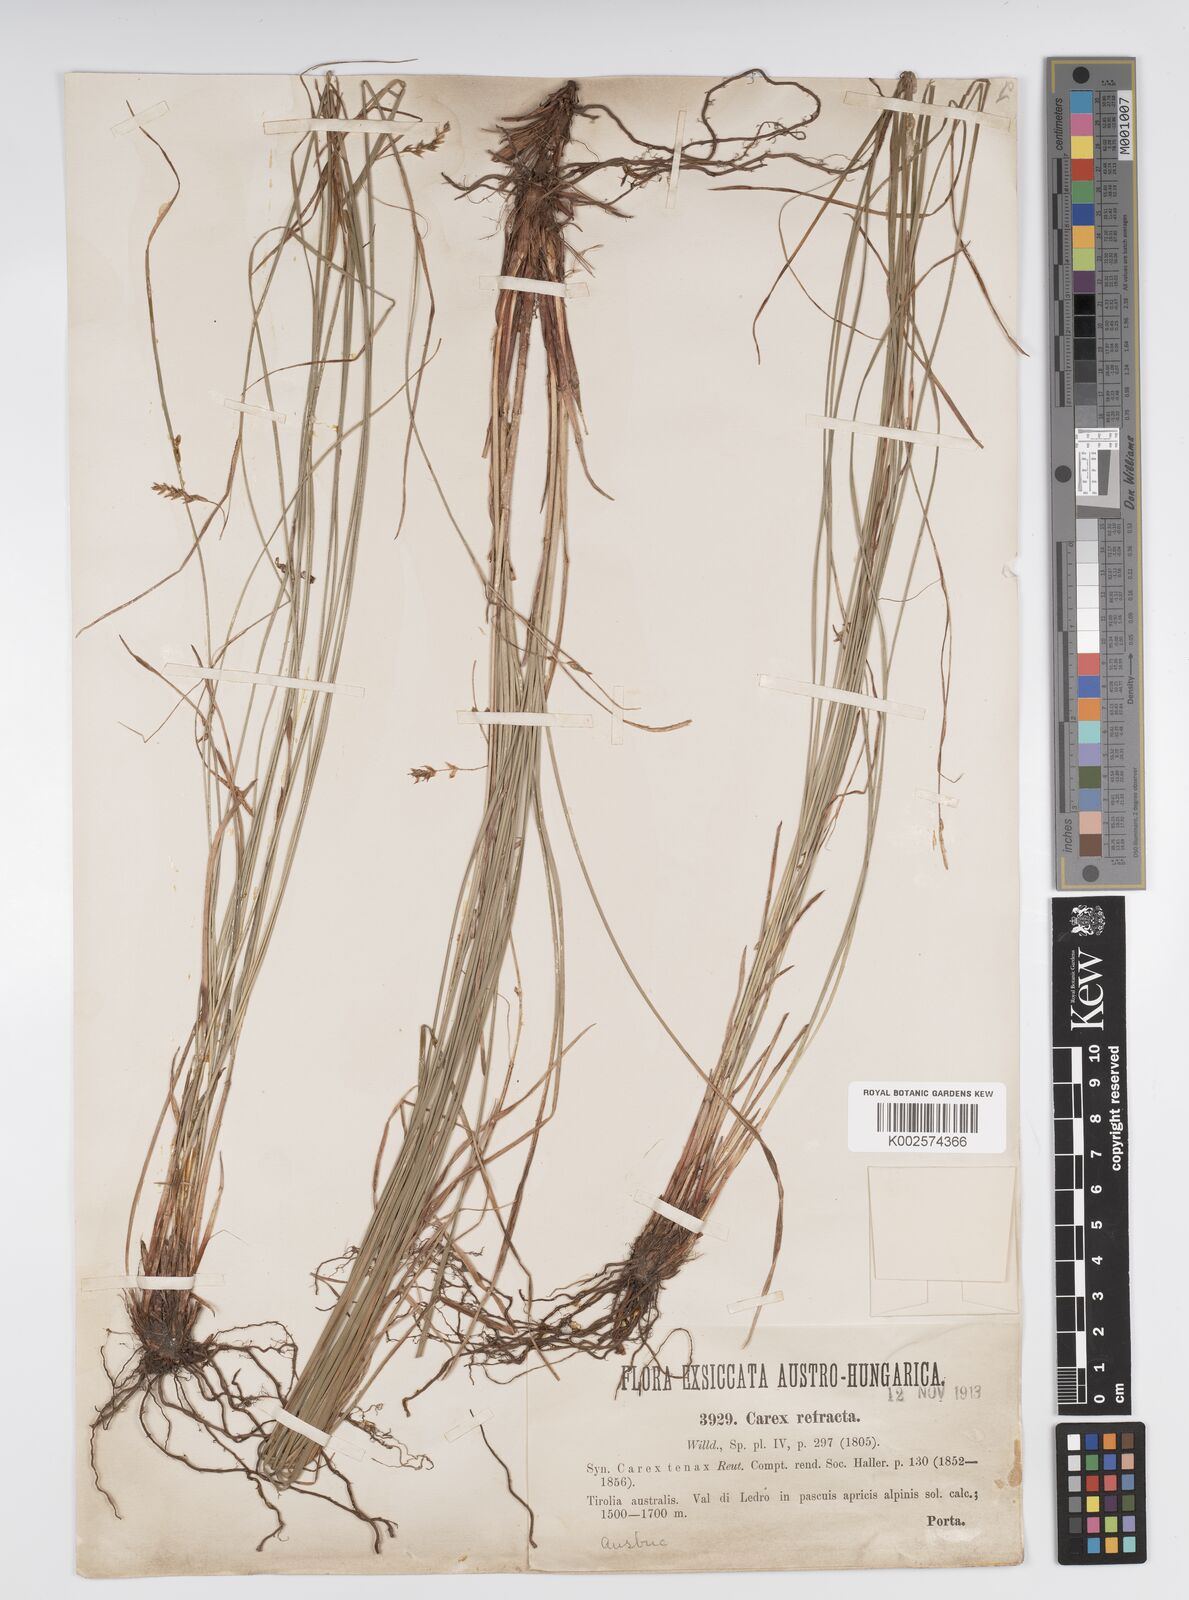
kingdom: Plantae
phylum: Tracheophyta
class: Liliopsida
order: Poales
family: Cyperaceae
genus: Carex
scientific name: Carex firma
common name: Dwarf pillow sedge
